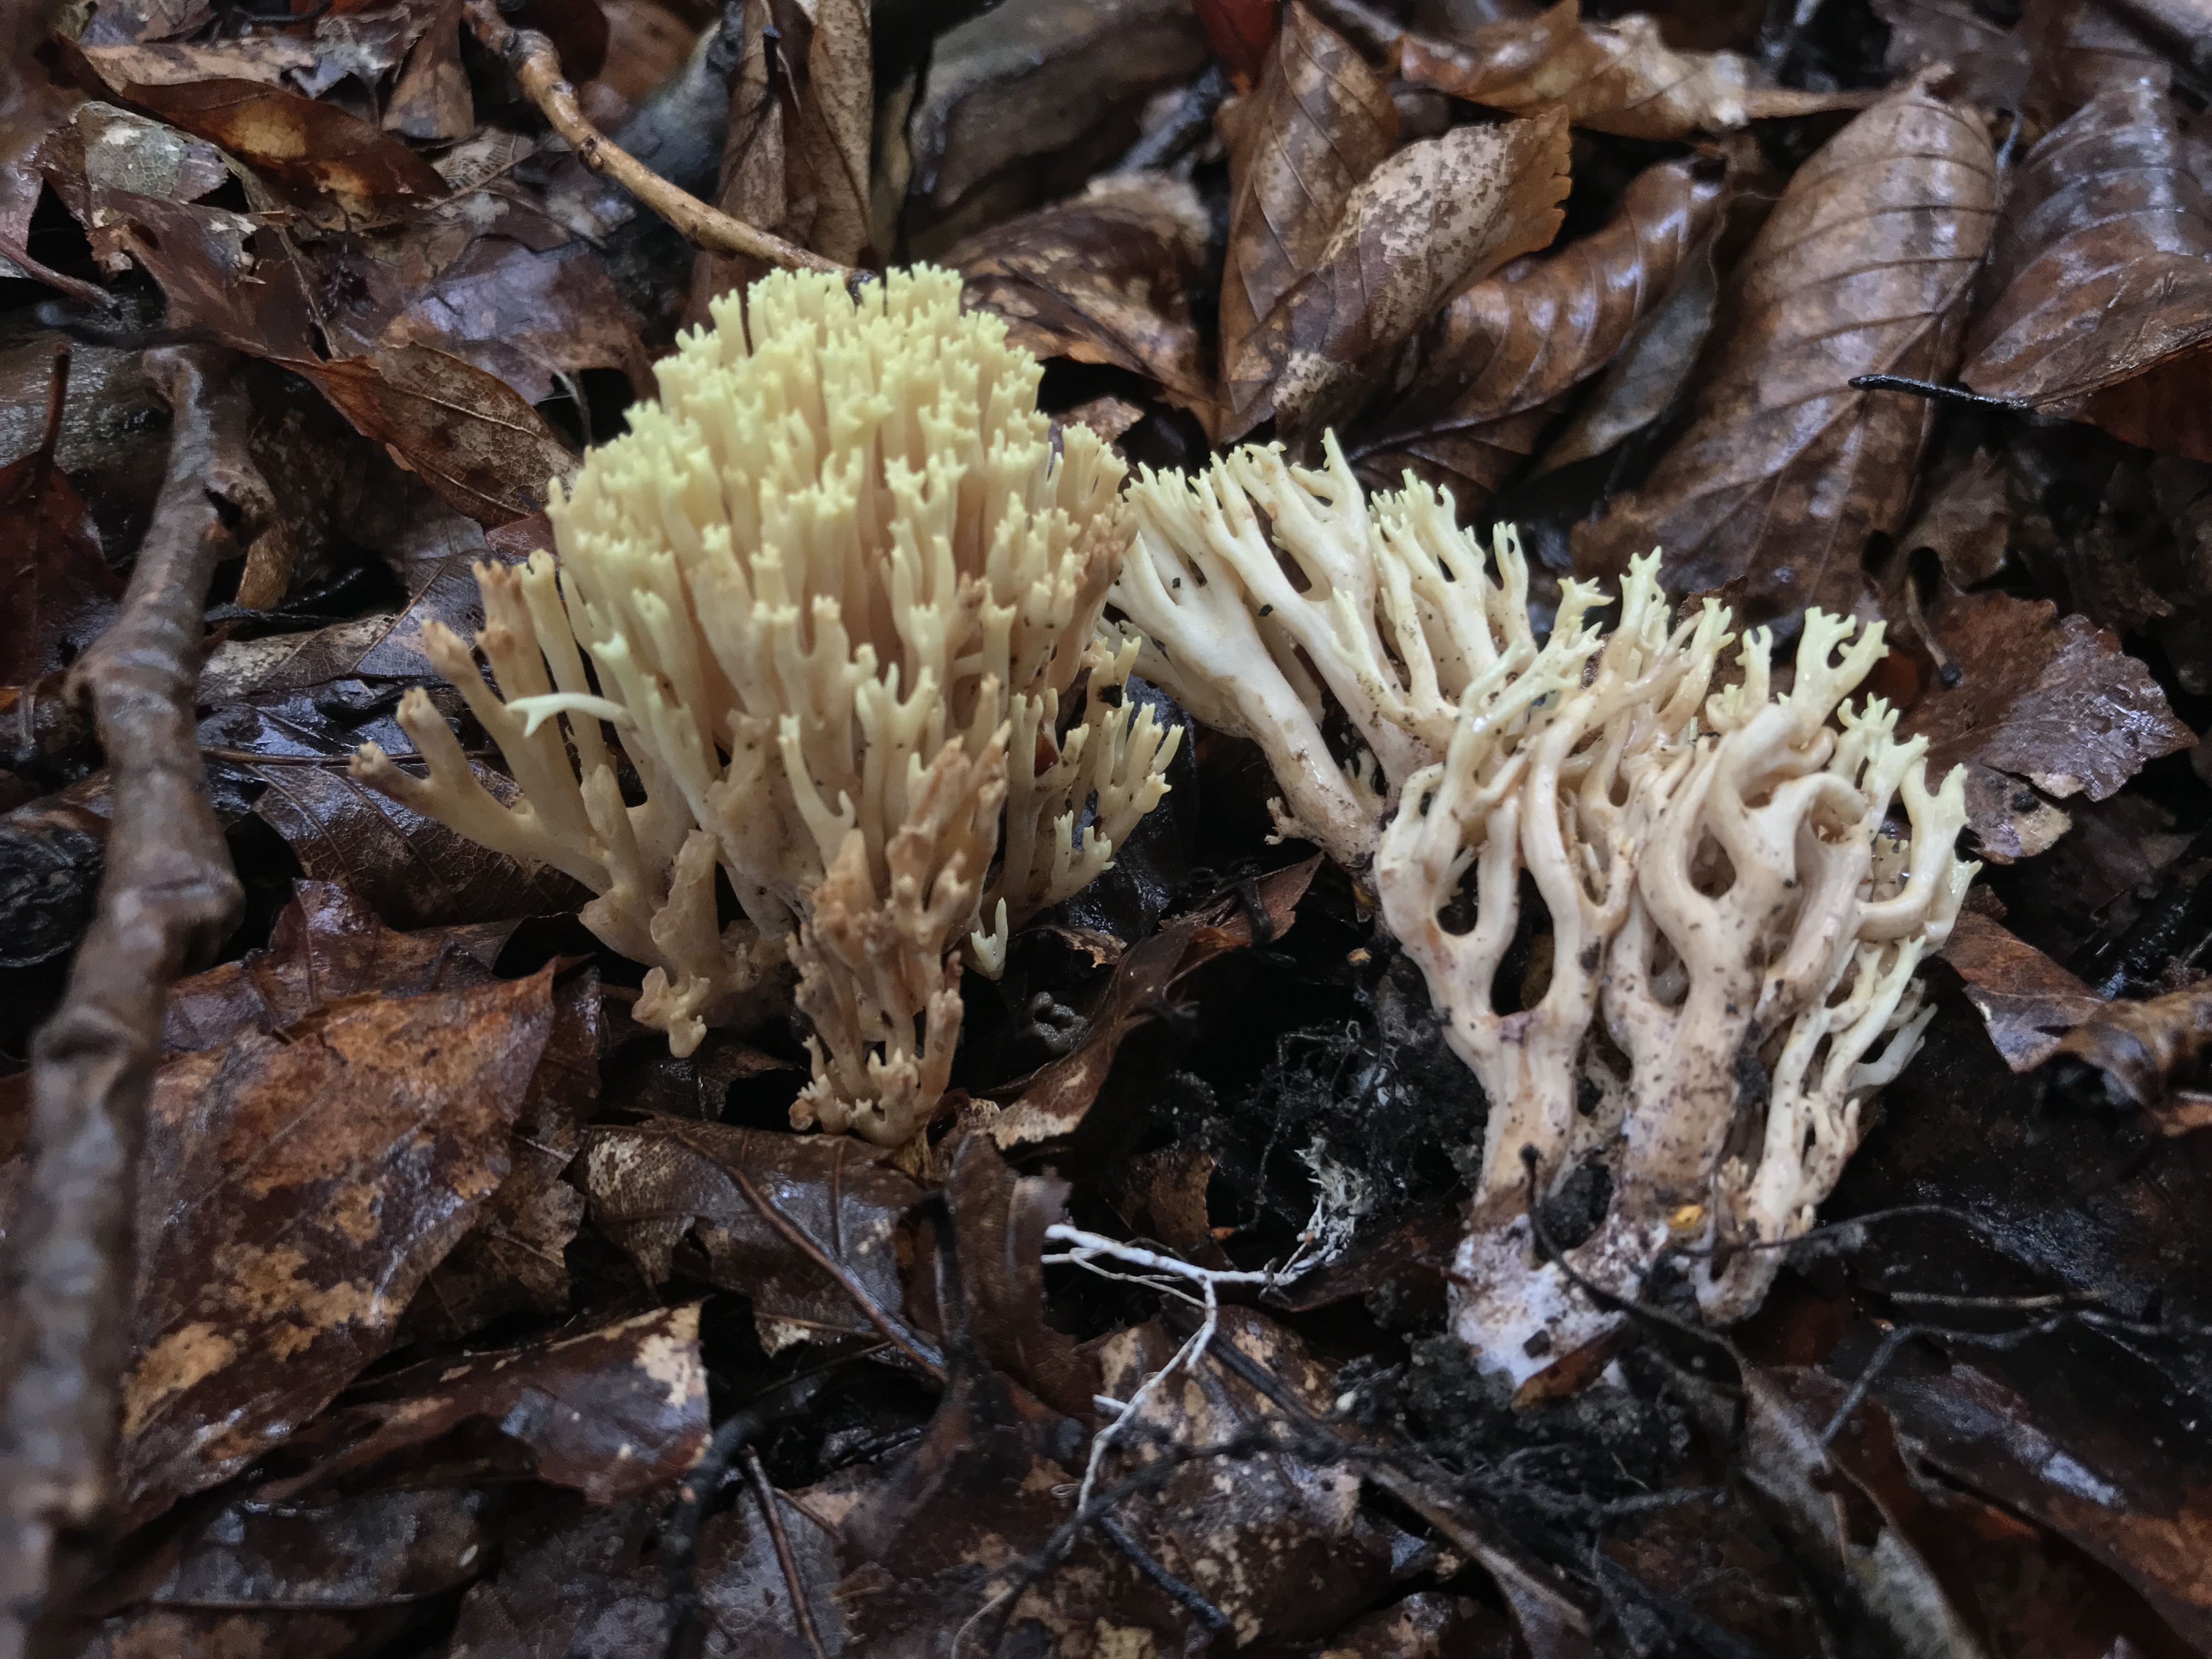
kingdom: Fungi
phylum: Basidiomycota
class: Agaricomycetes
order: Gomphales
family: Gomphaceae
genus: Ramaria
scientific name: Ramaria stricta
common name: rank koralsvamp
